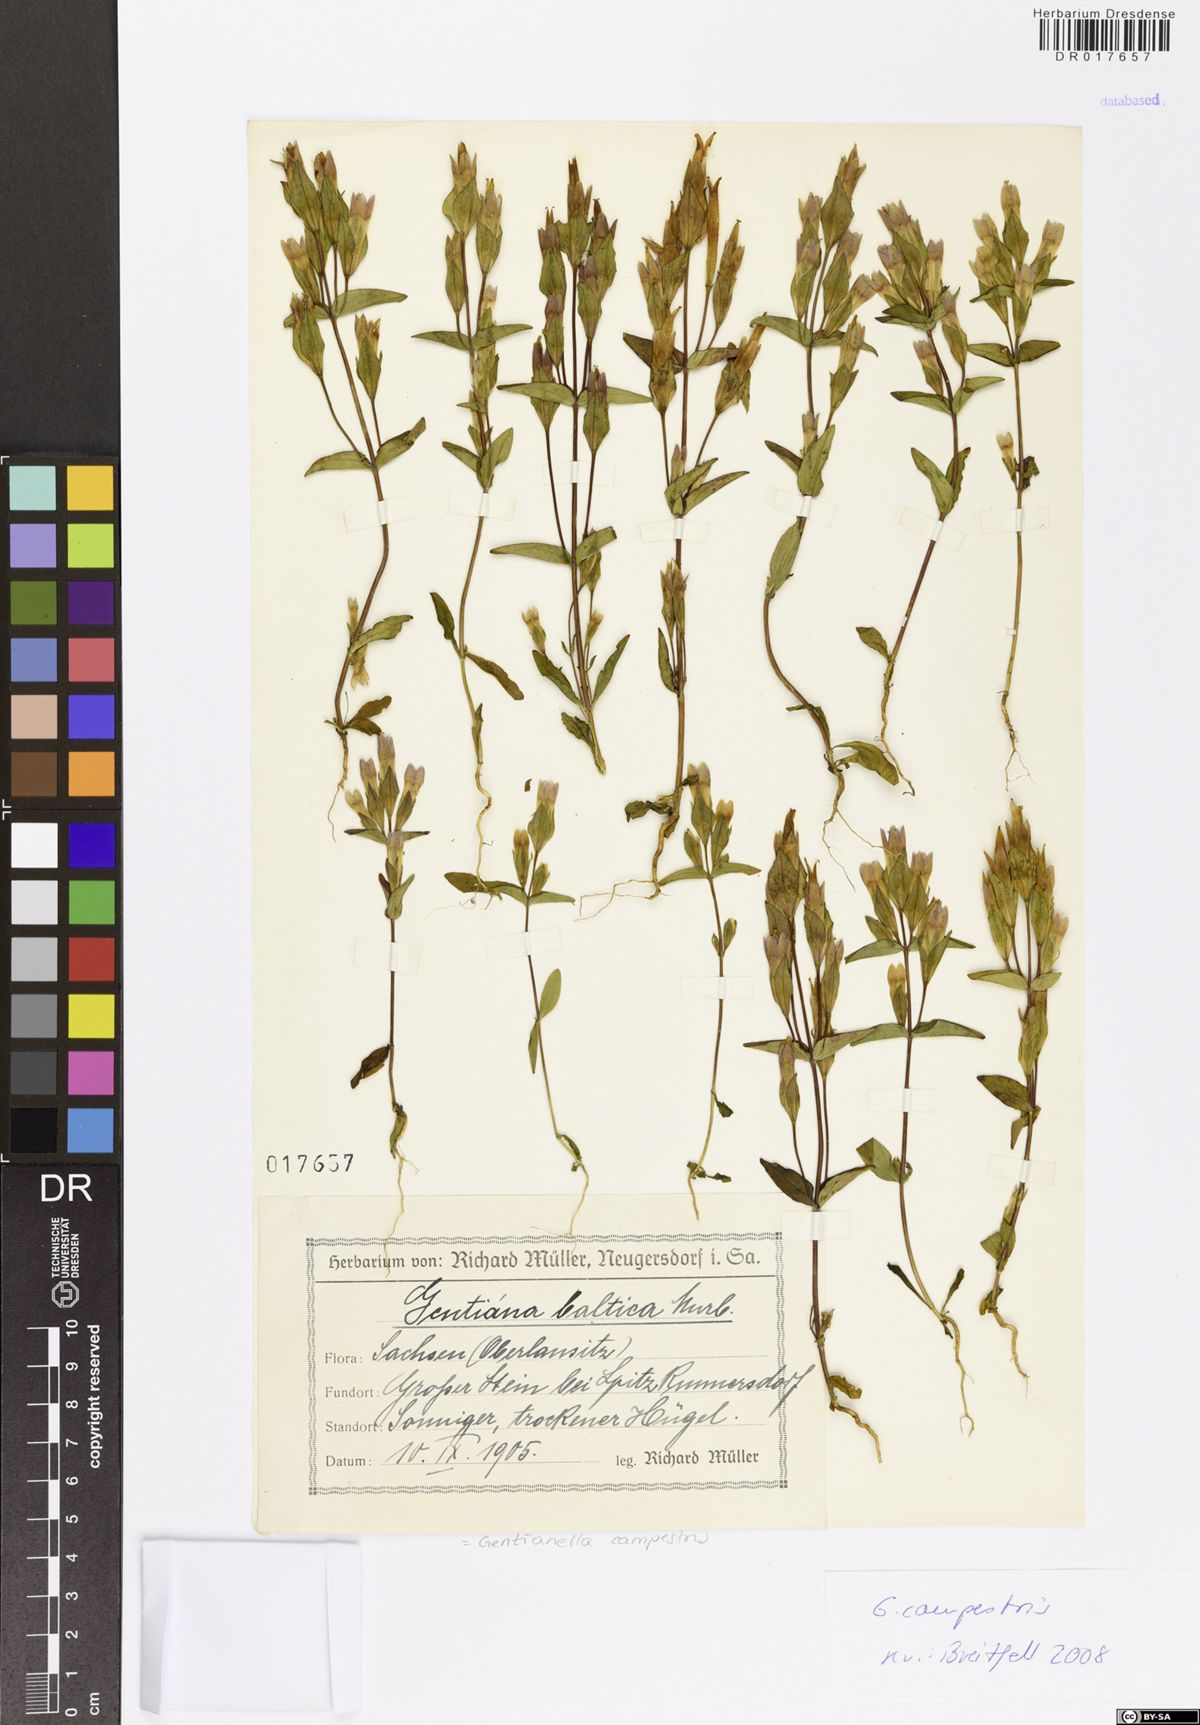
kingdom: Plantae
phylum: Tracheophyta
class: Magnoliopsida
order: Gentianales
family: Gentianaceae
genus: Gentianella
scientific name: Gentianella campestris
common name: Field gentian
